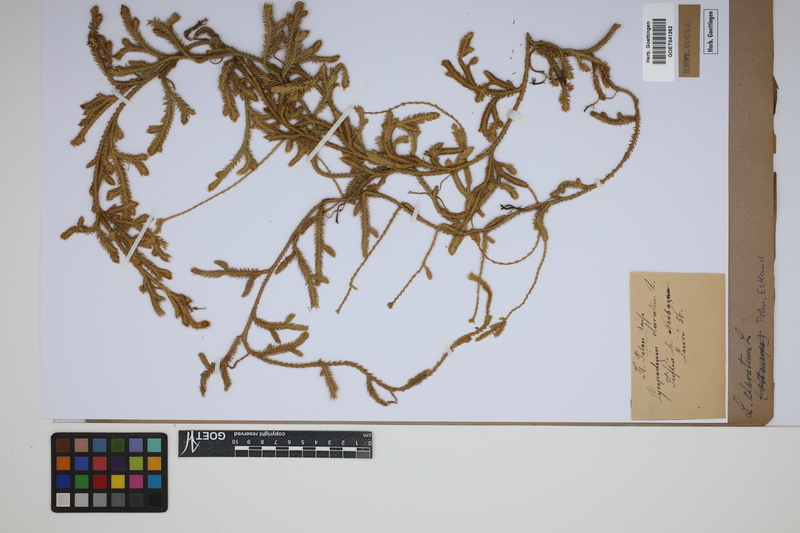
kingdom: Plantae
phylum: Tracheophyta
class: Lycopodiopsida
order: Lycopodiales
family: Lycopodiaceae
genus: Lycopodium
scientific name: Lycopodium clavatum
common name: Stag's-horn clubmoss
